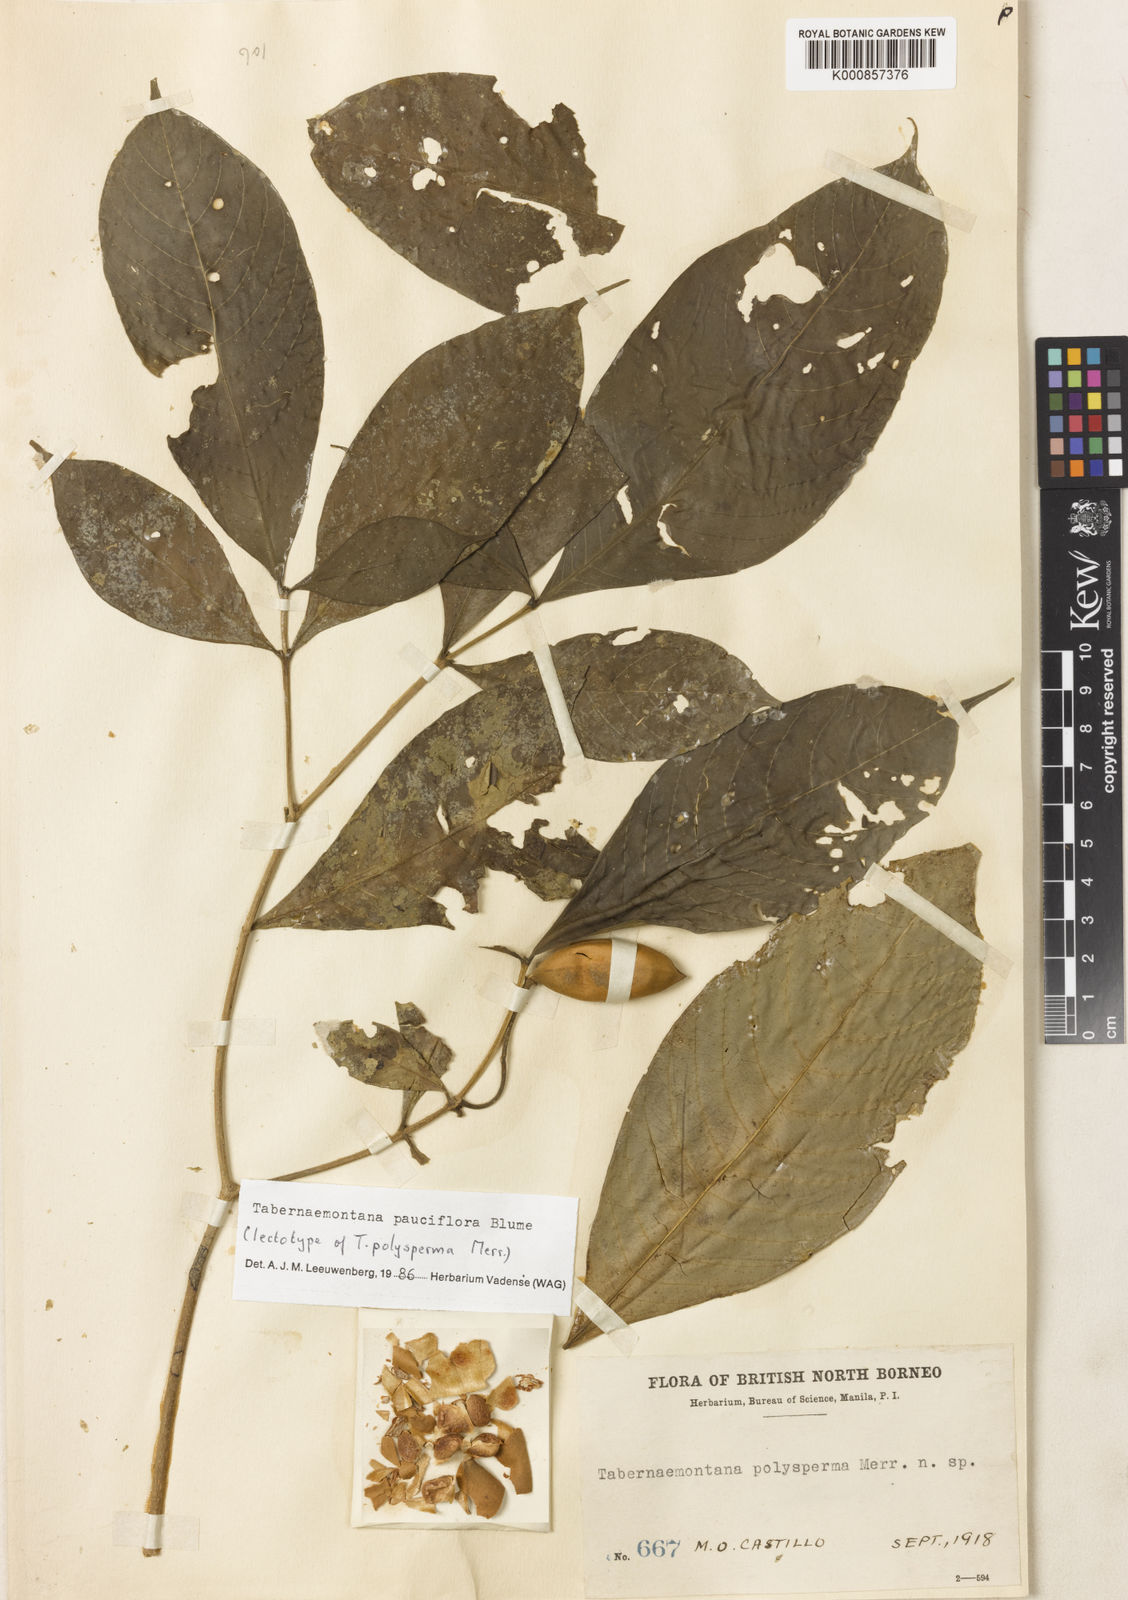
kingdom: Plantae
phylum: Tracheophyta
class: Magnoliopsida
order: Gentianales
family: Apocynaceae
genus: Tabernaemontana
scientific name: Tabernaemontana pauciflora
